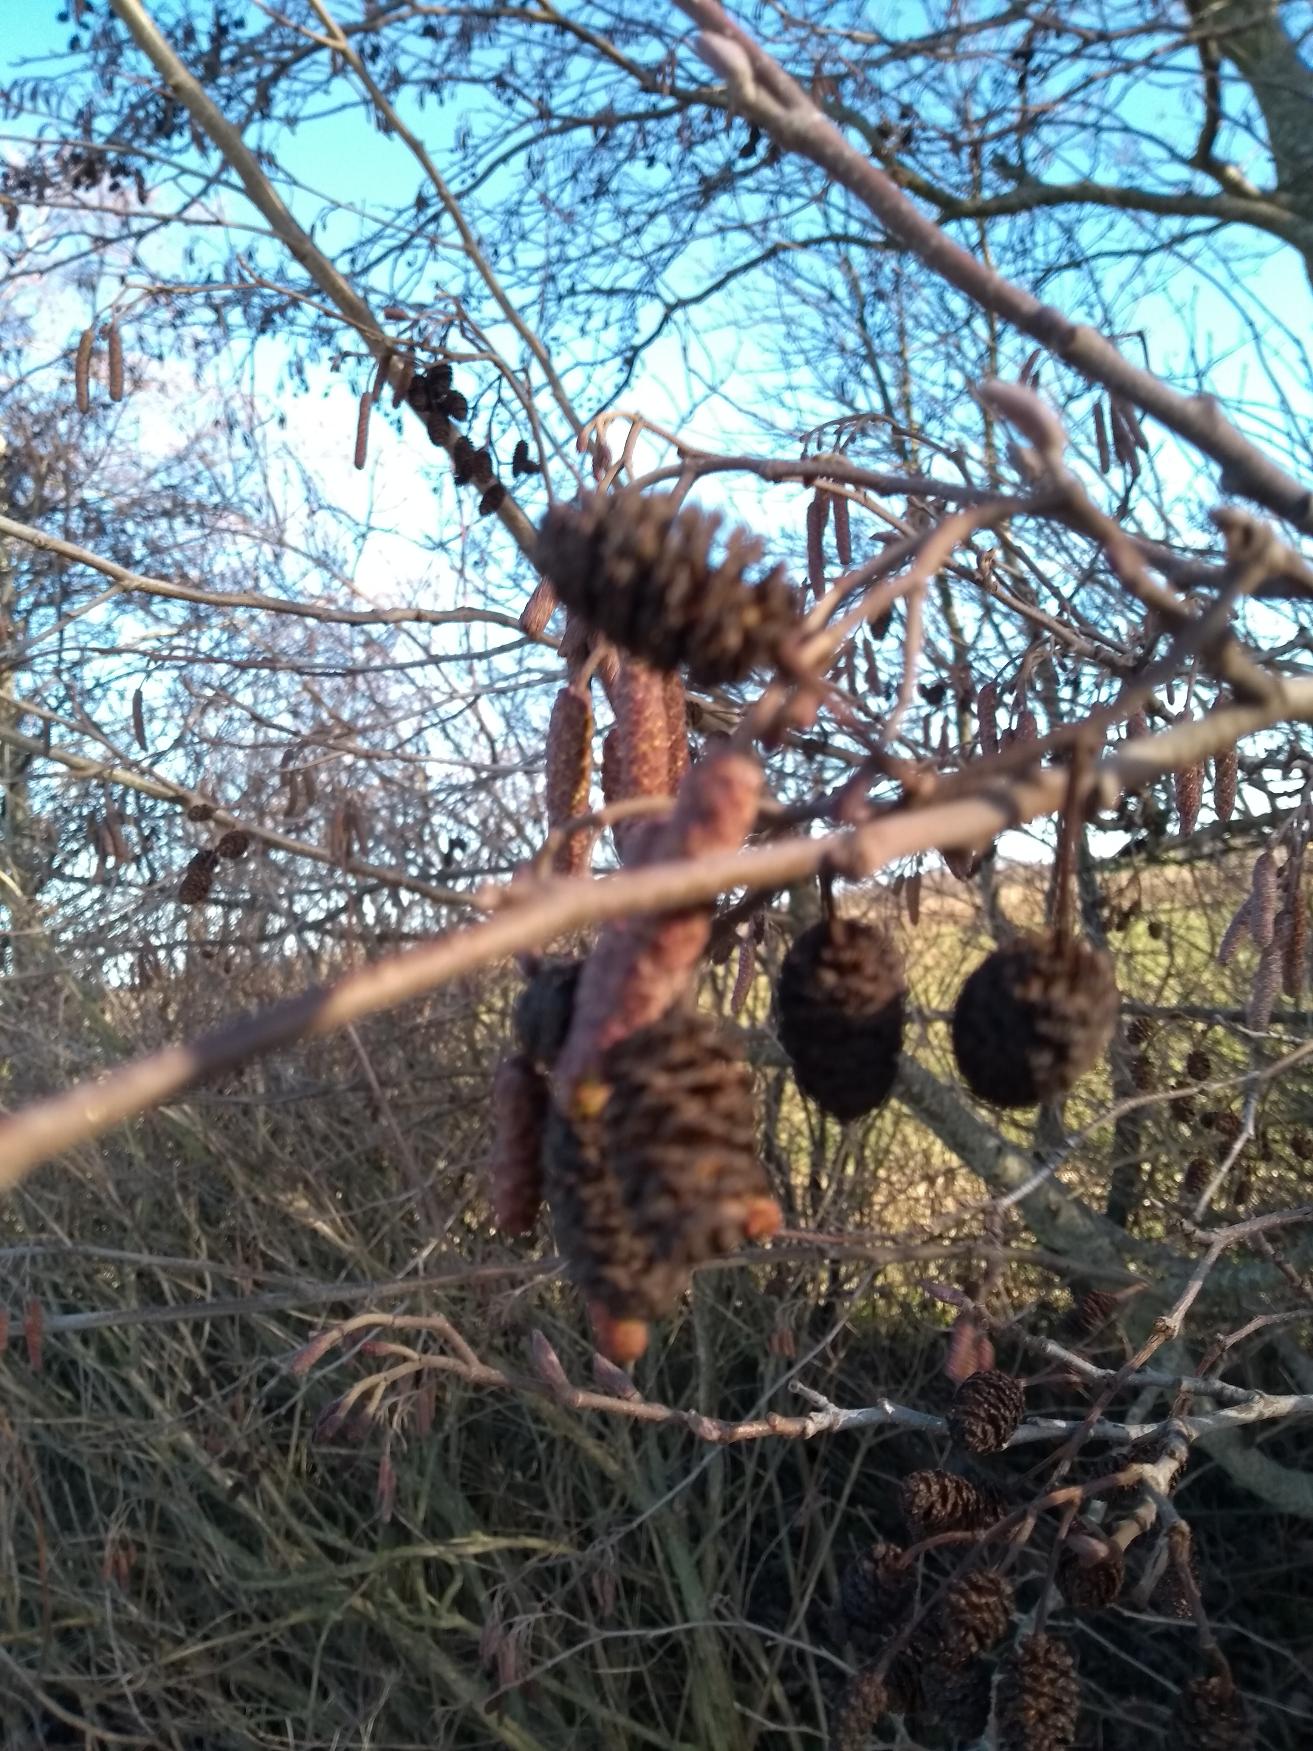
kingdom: Plantae
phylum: Tracheophyta
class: Magnoliopsida
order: Fagales
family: Betulaceae
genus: Alnus
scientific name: Alnus glutinosa
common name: Rød-el
